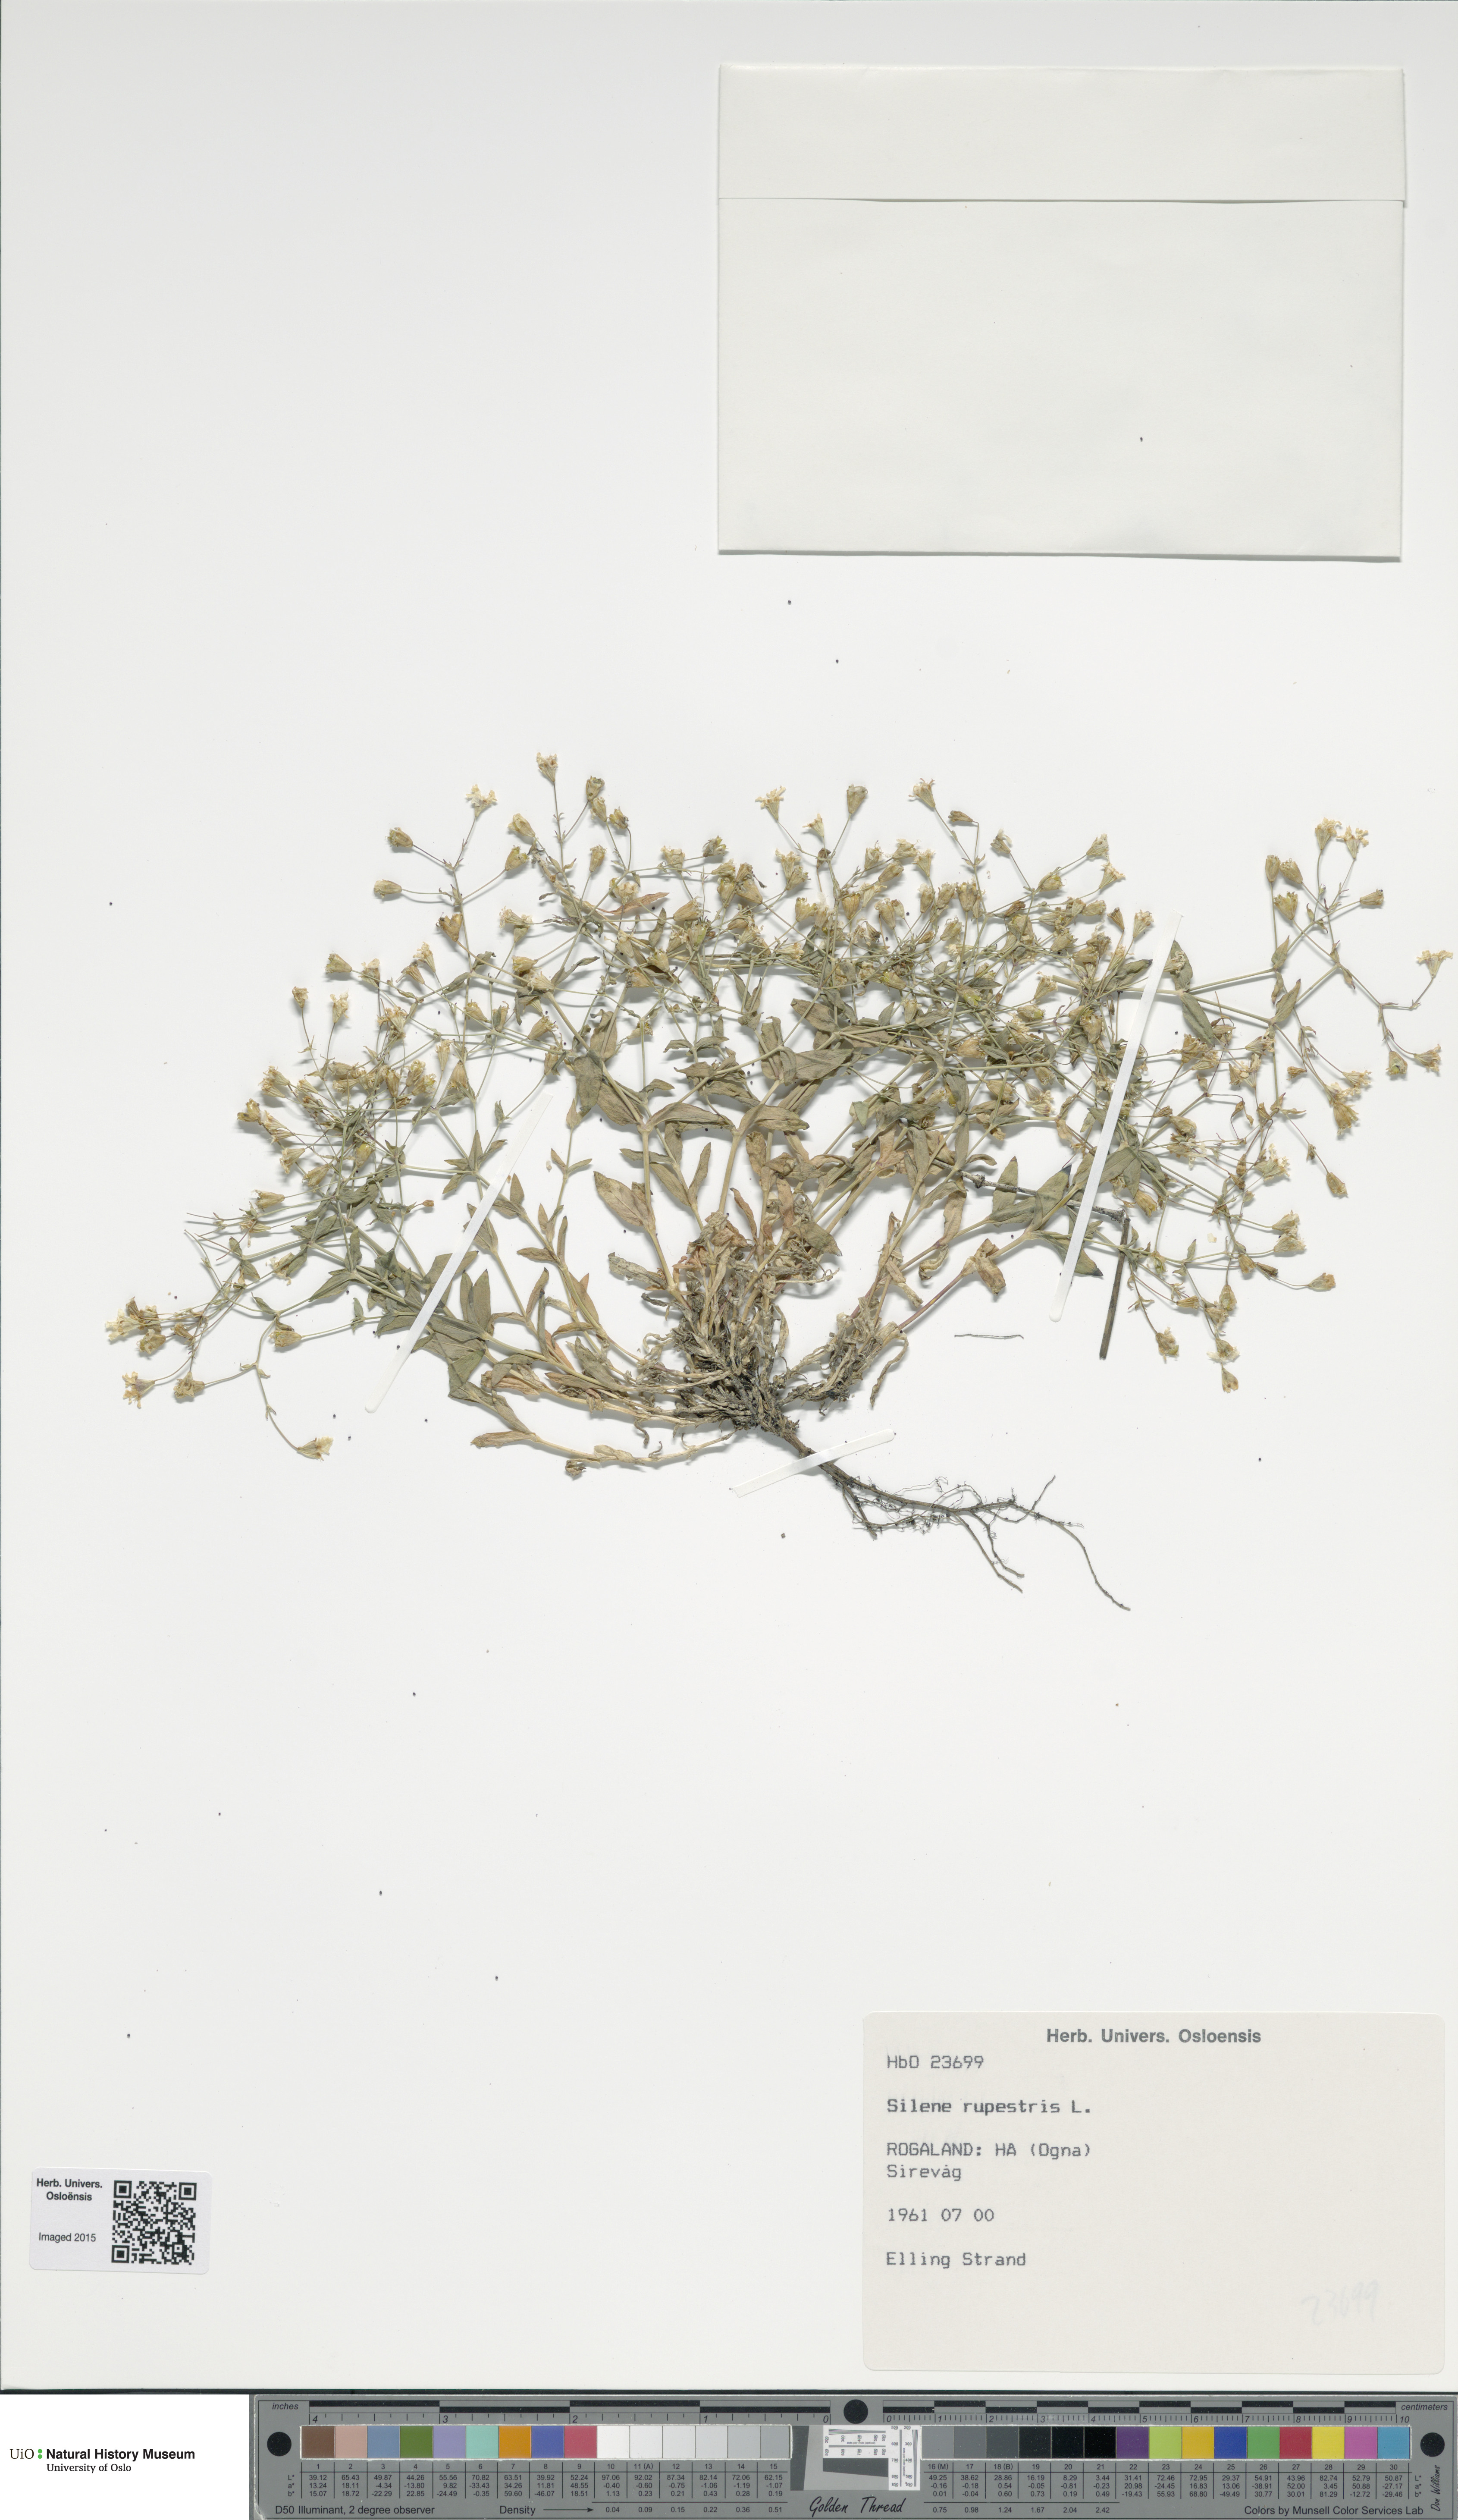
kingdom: Plantae
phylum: Tracheophyta
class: Magnoliopsida
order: Caryophyllales
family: Caryophyllaceae
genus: Atocion
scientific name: Atocion rupestre
